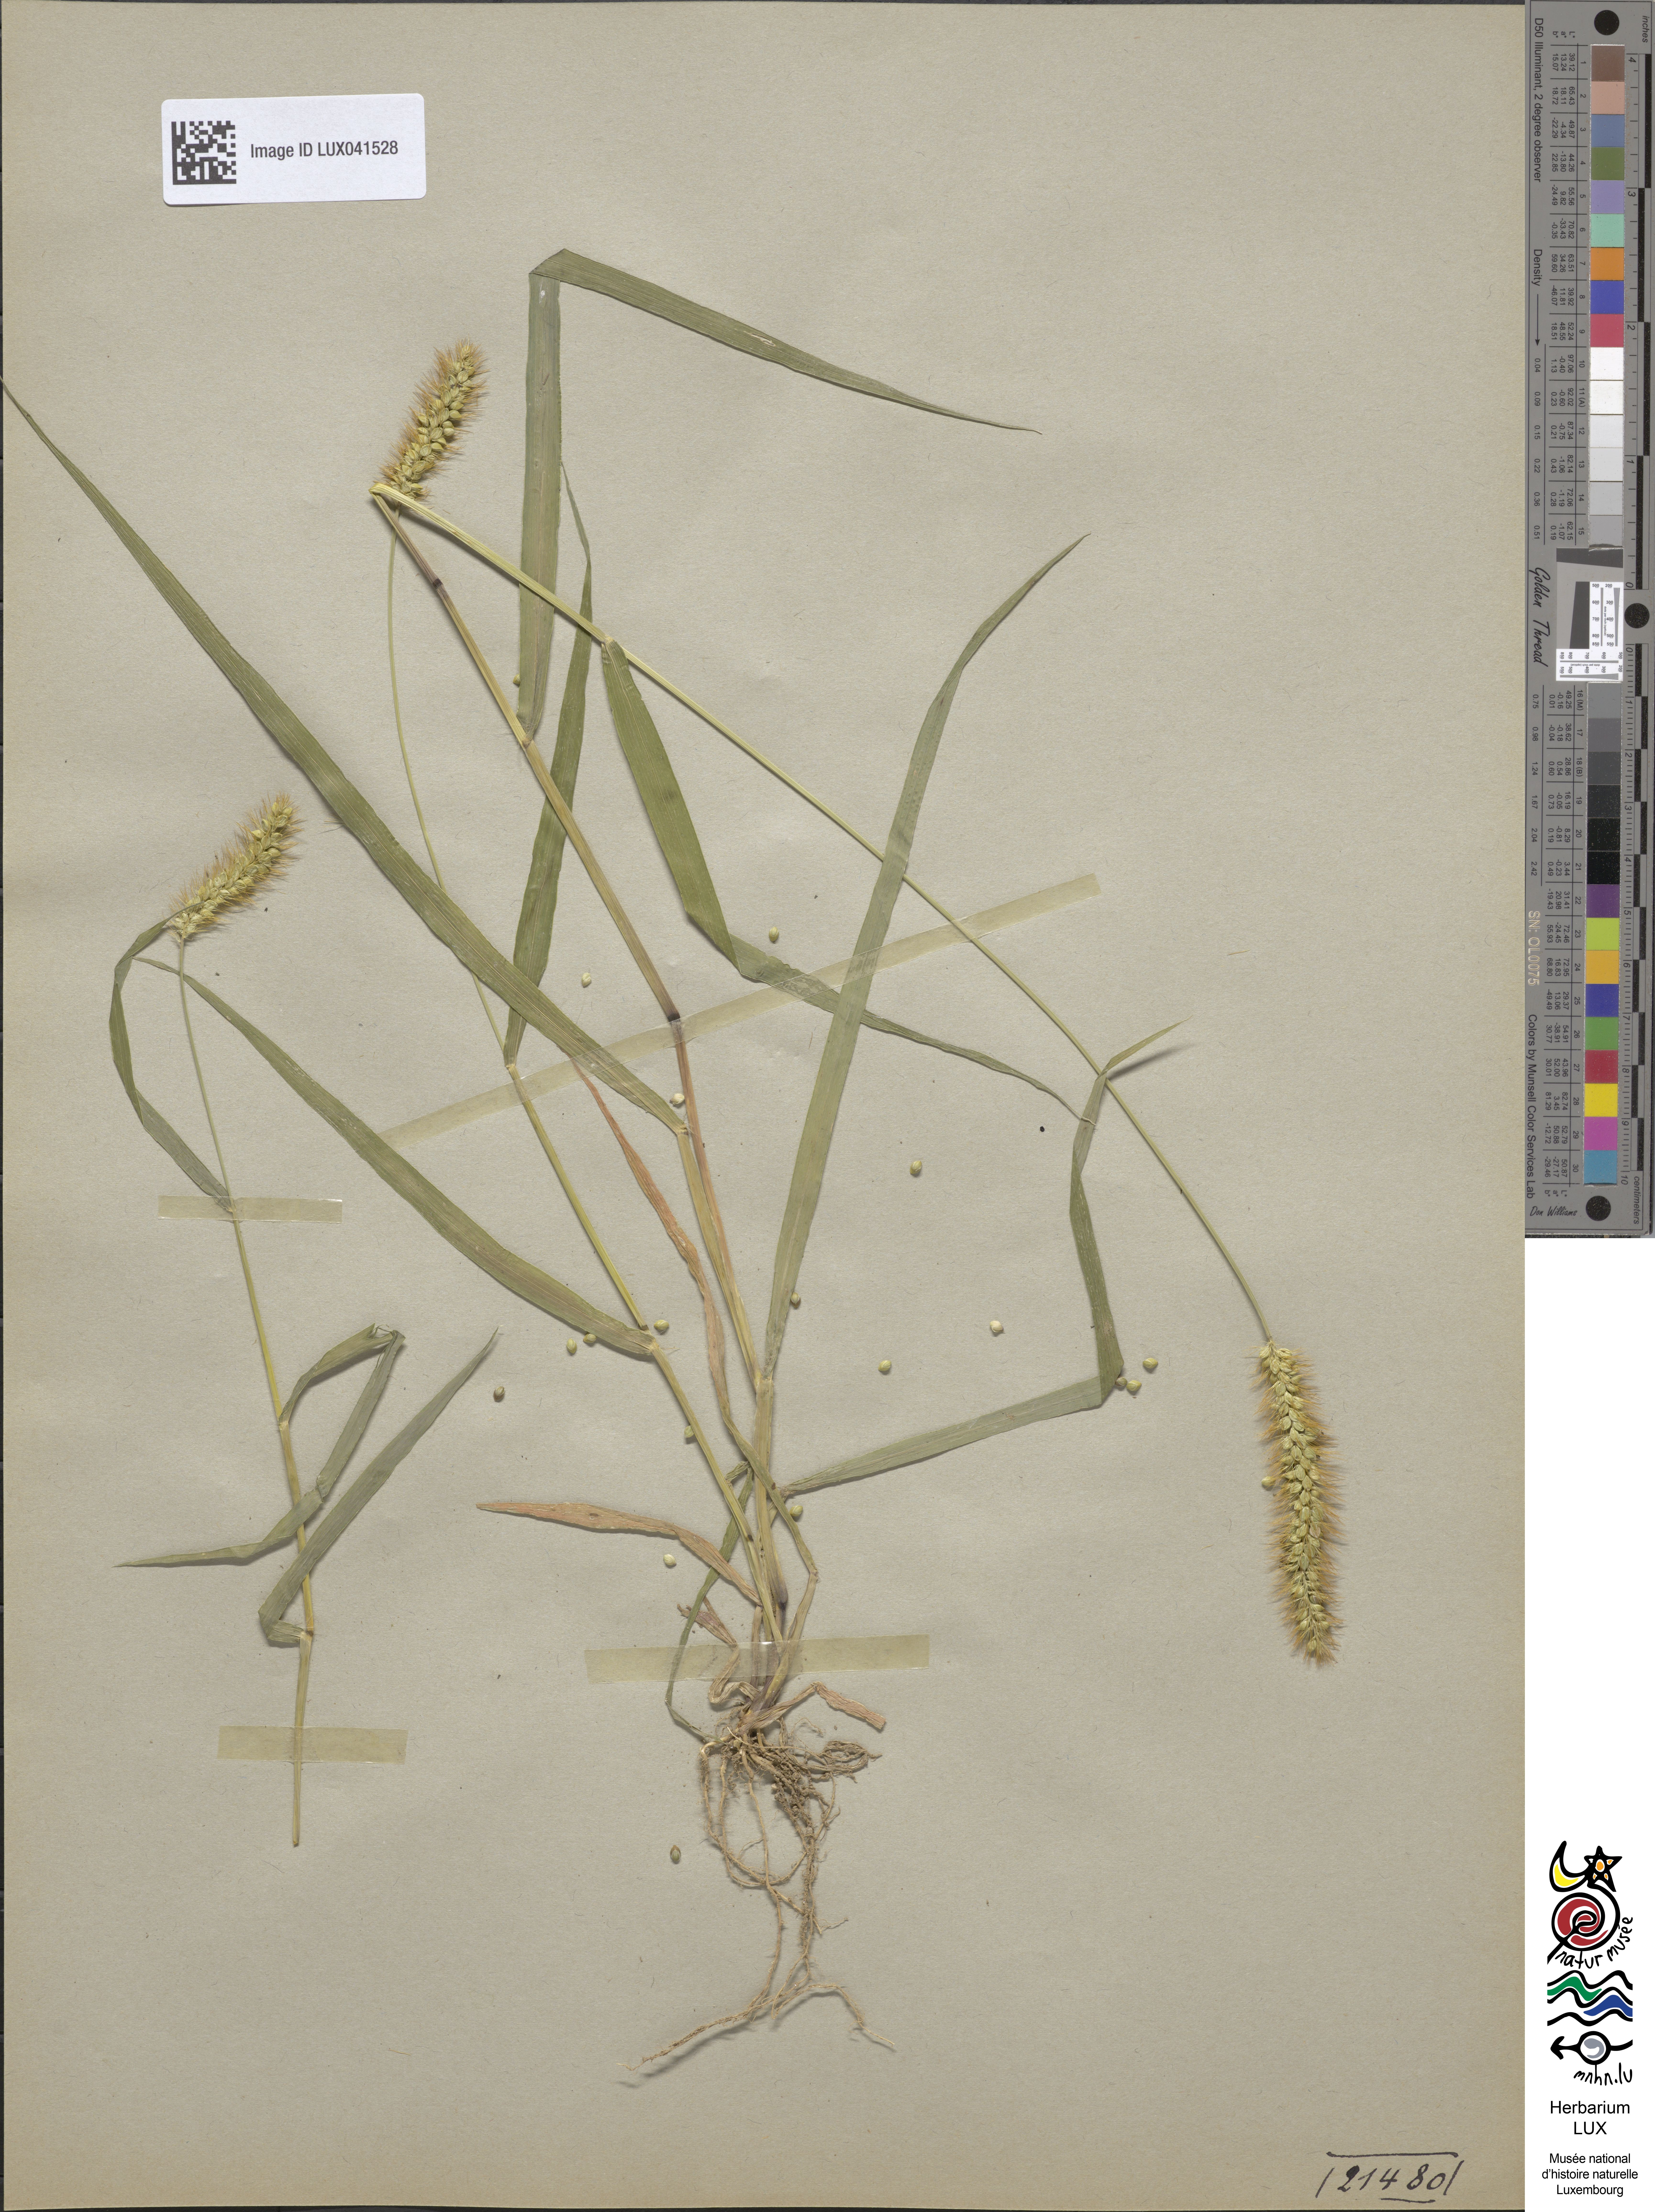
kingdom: Plantae
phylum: Tracheophyta
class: Liliopsida
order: Poales
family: Poaceae
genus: Cenchrus
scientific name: Cenchrus americanus
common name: Pearl millet
